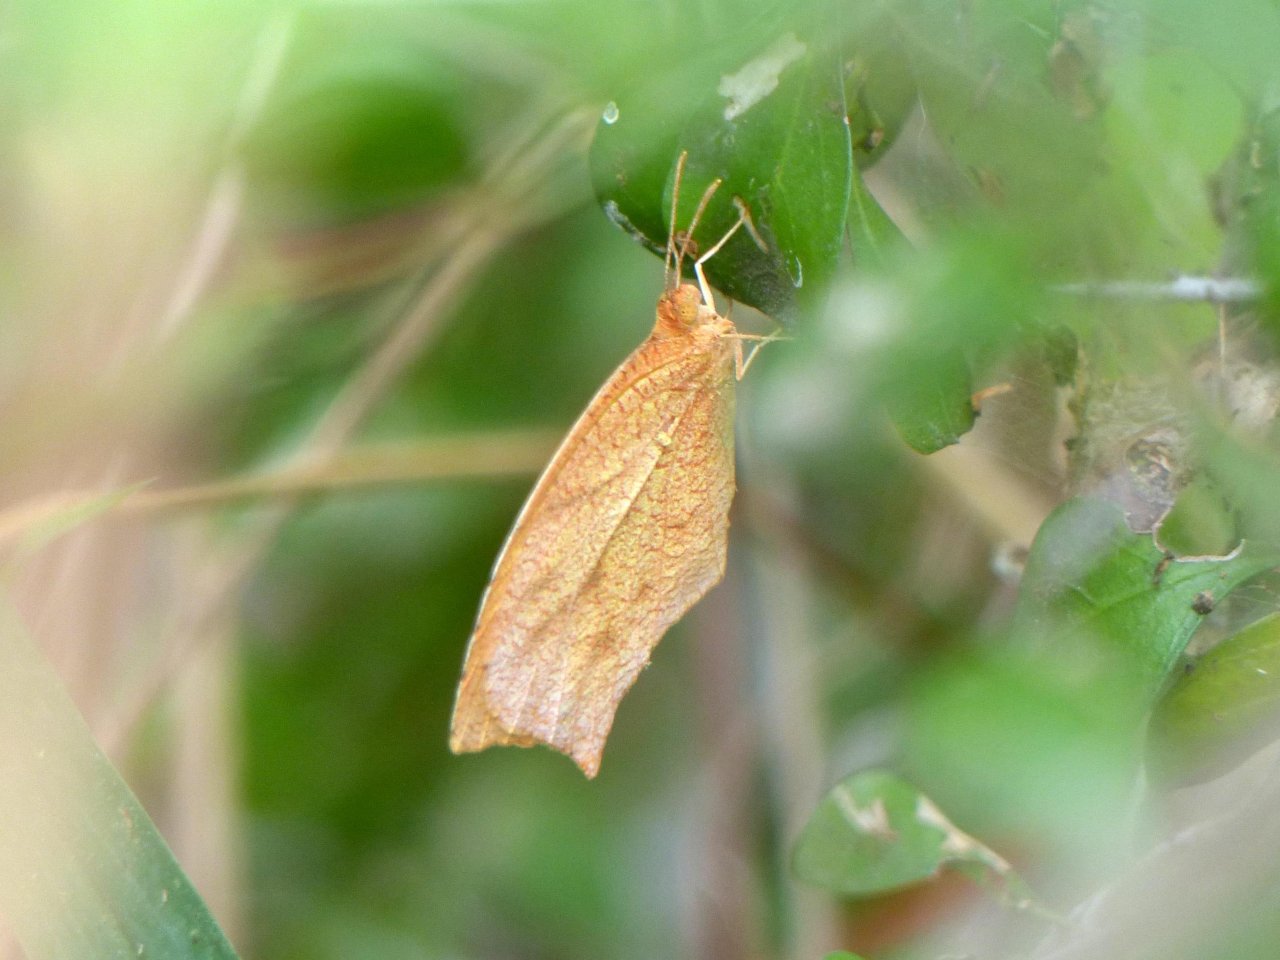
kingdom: Animalia
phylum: Arthropoda
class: Insecta
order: Lepidoptera
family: Pieridae
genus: Pyrisitia
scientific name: Pyrisitia proterpia
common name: Tailed Orange
